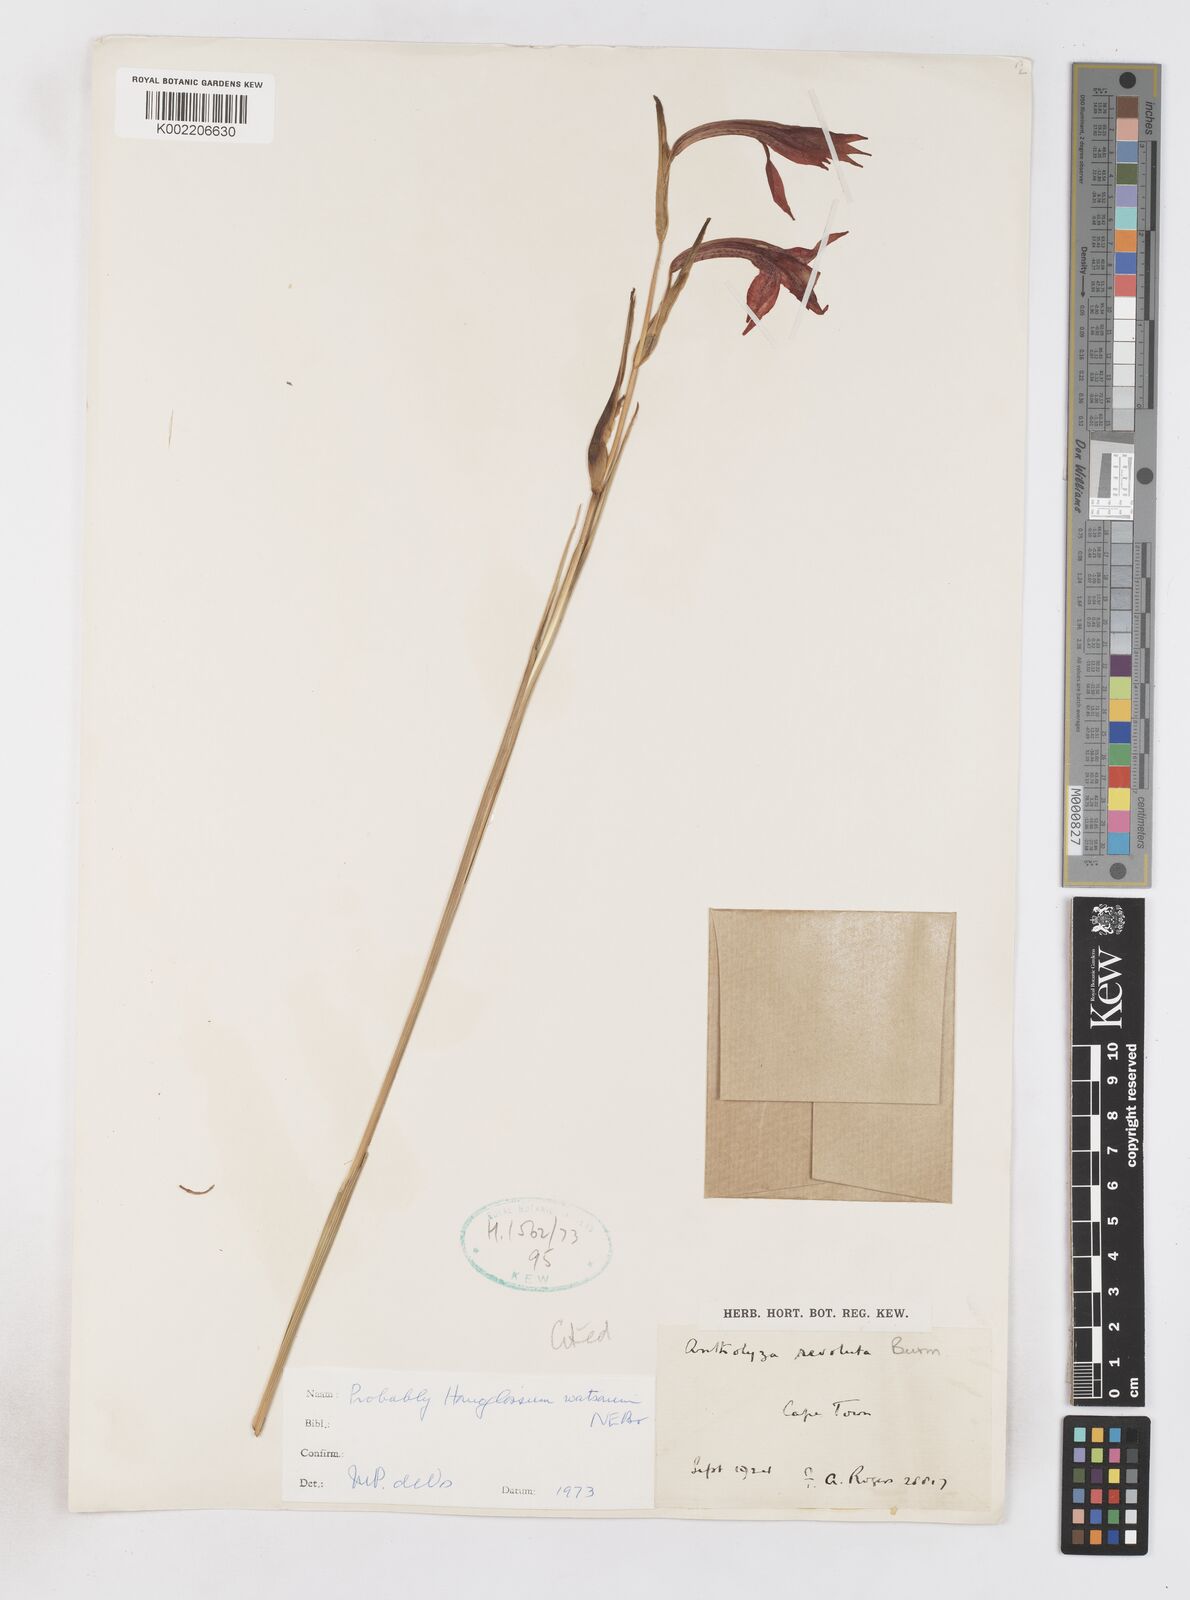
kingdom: Plantae
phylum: Tracheophyta
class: Liliopsida
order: Asparagales
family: Iridaceae
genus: Gladiolus
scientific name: Gladiolus watsonius
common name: Red afrikaner
